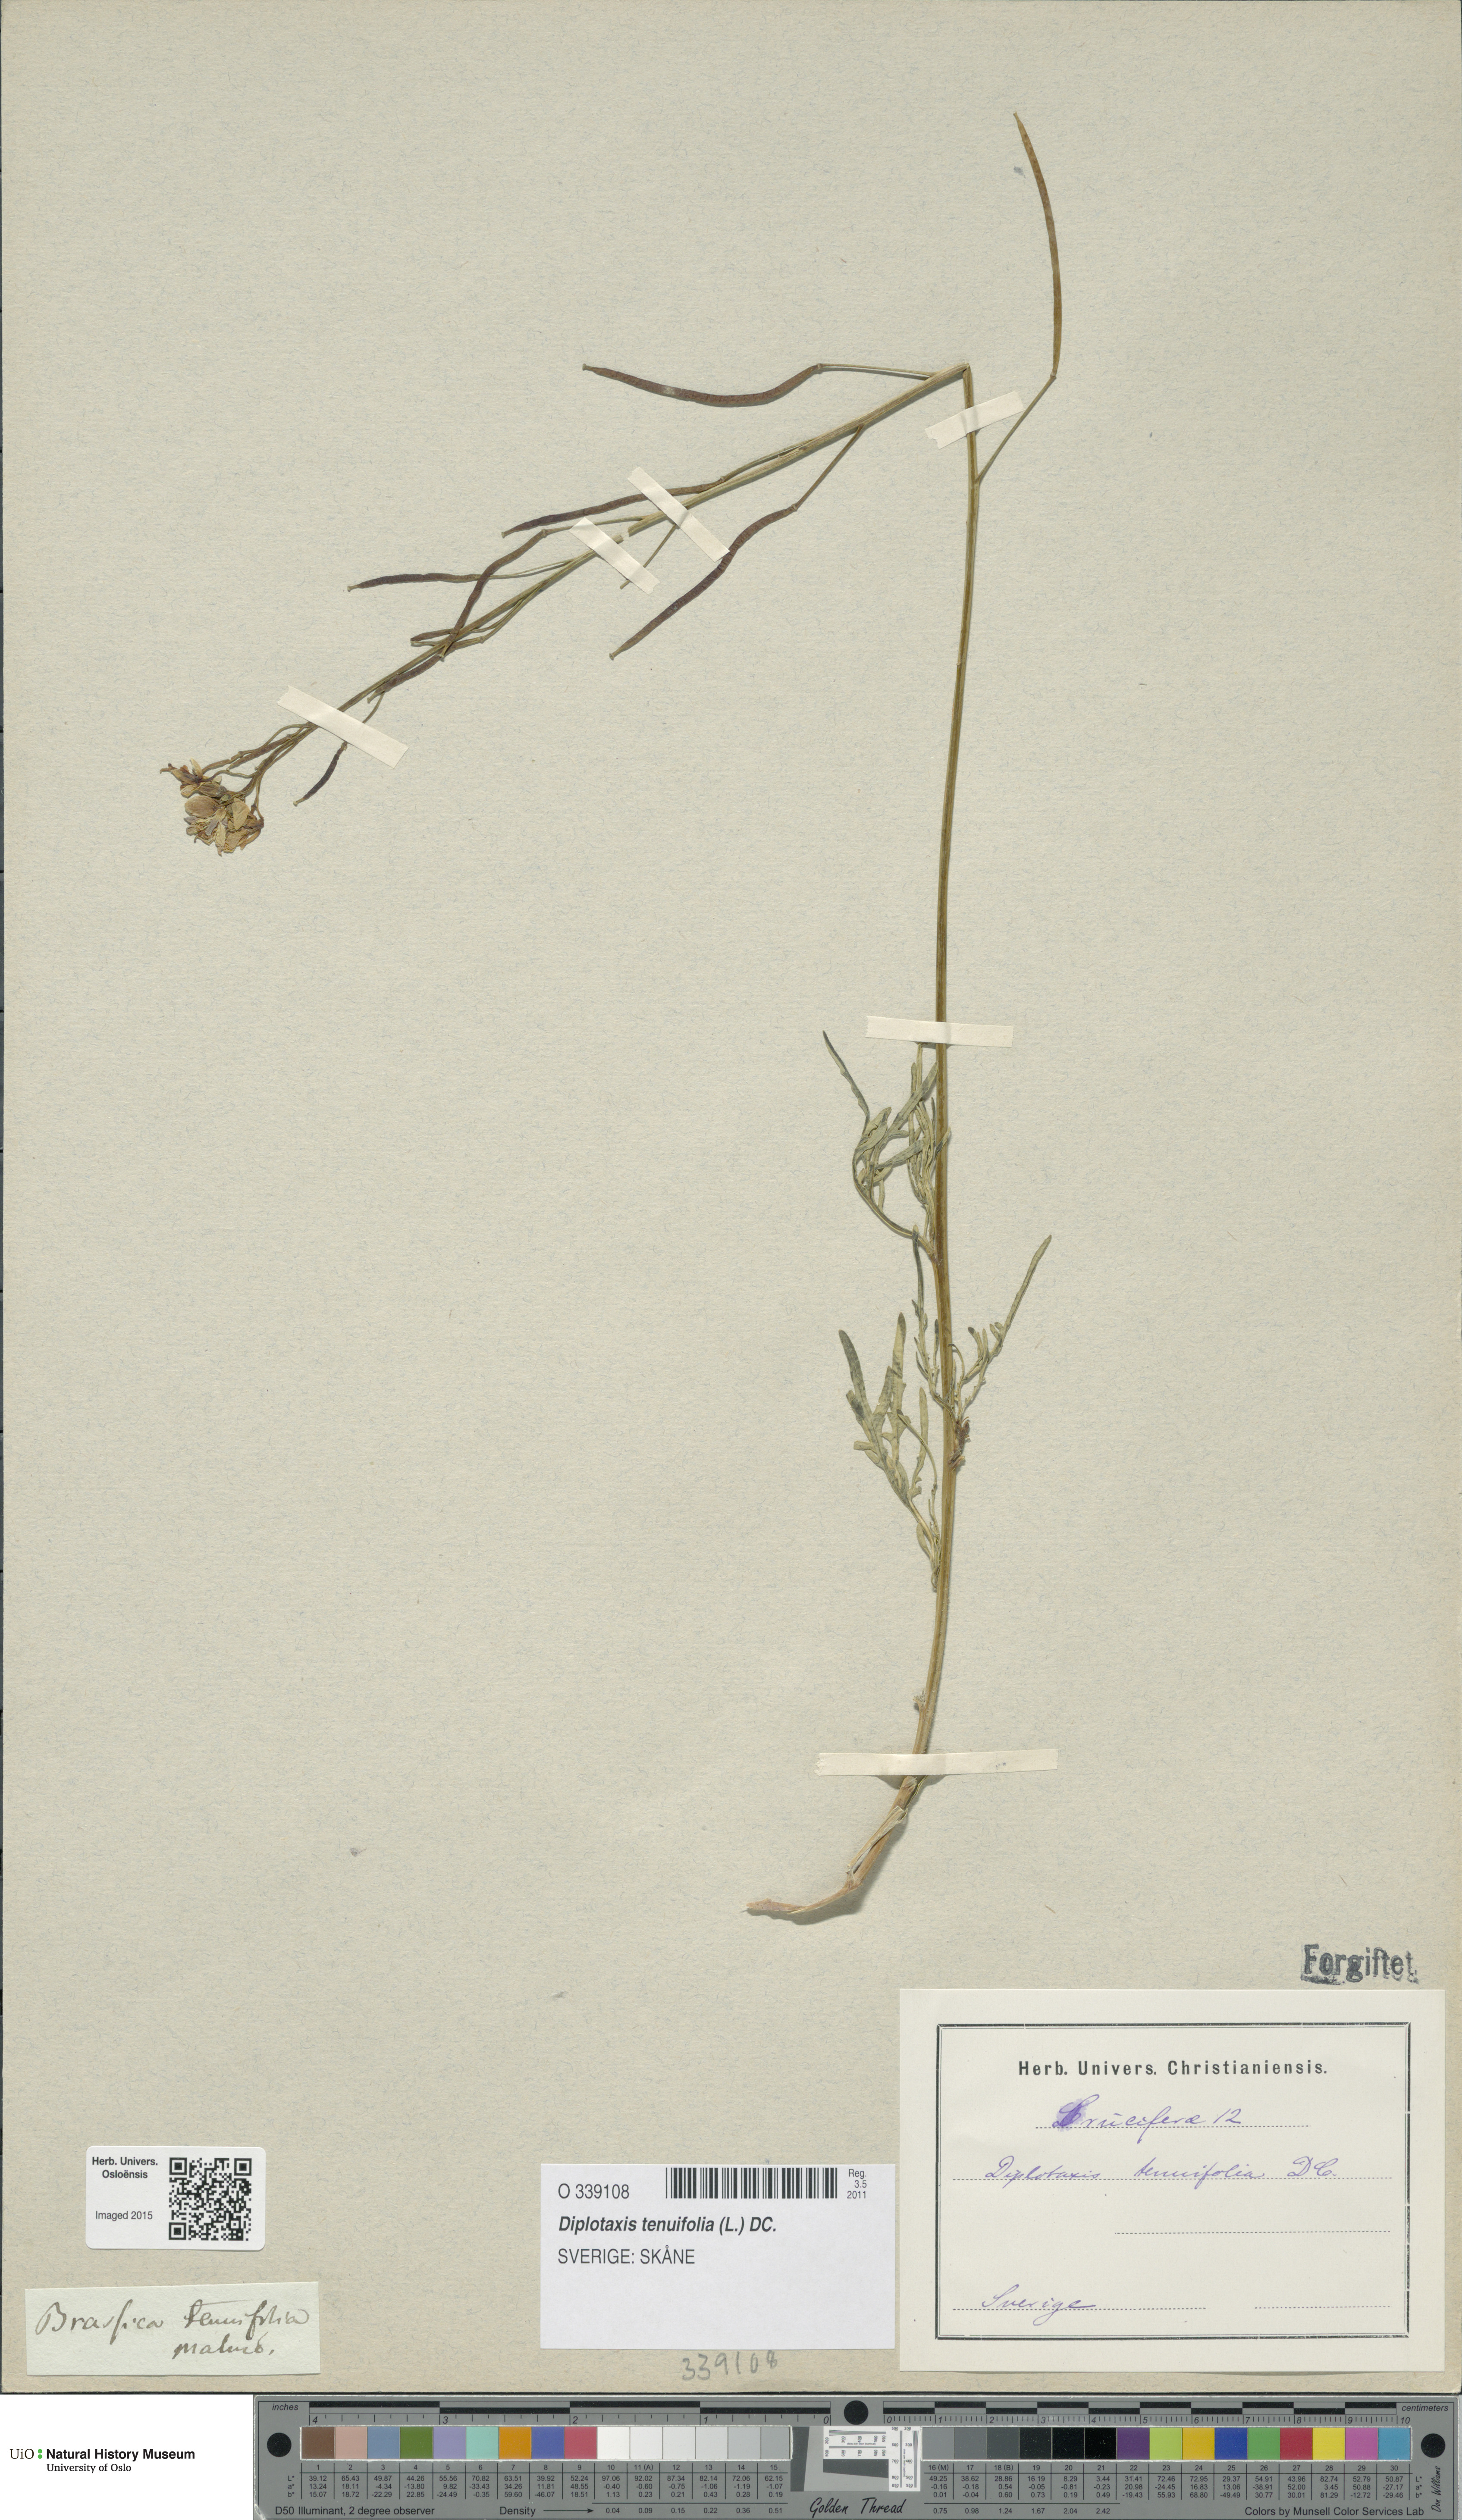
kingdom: Plantae
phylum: Tracheophyta
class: Magnoliopsida
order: Brassicales
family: Brassicaceae
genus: Diplotaxis
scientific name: Diplotaxis tenuifolia
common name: Perennial wall-rocket
